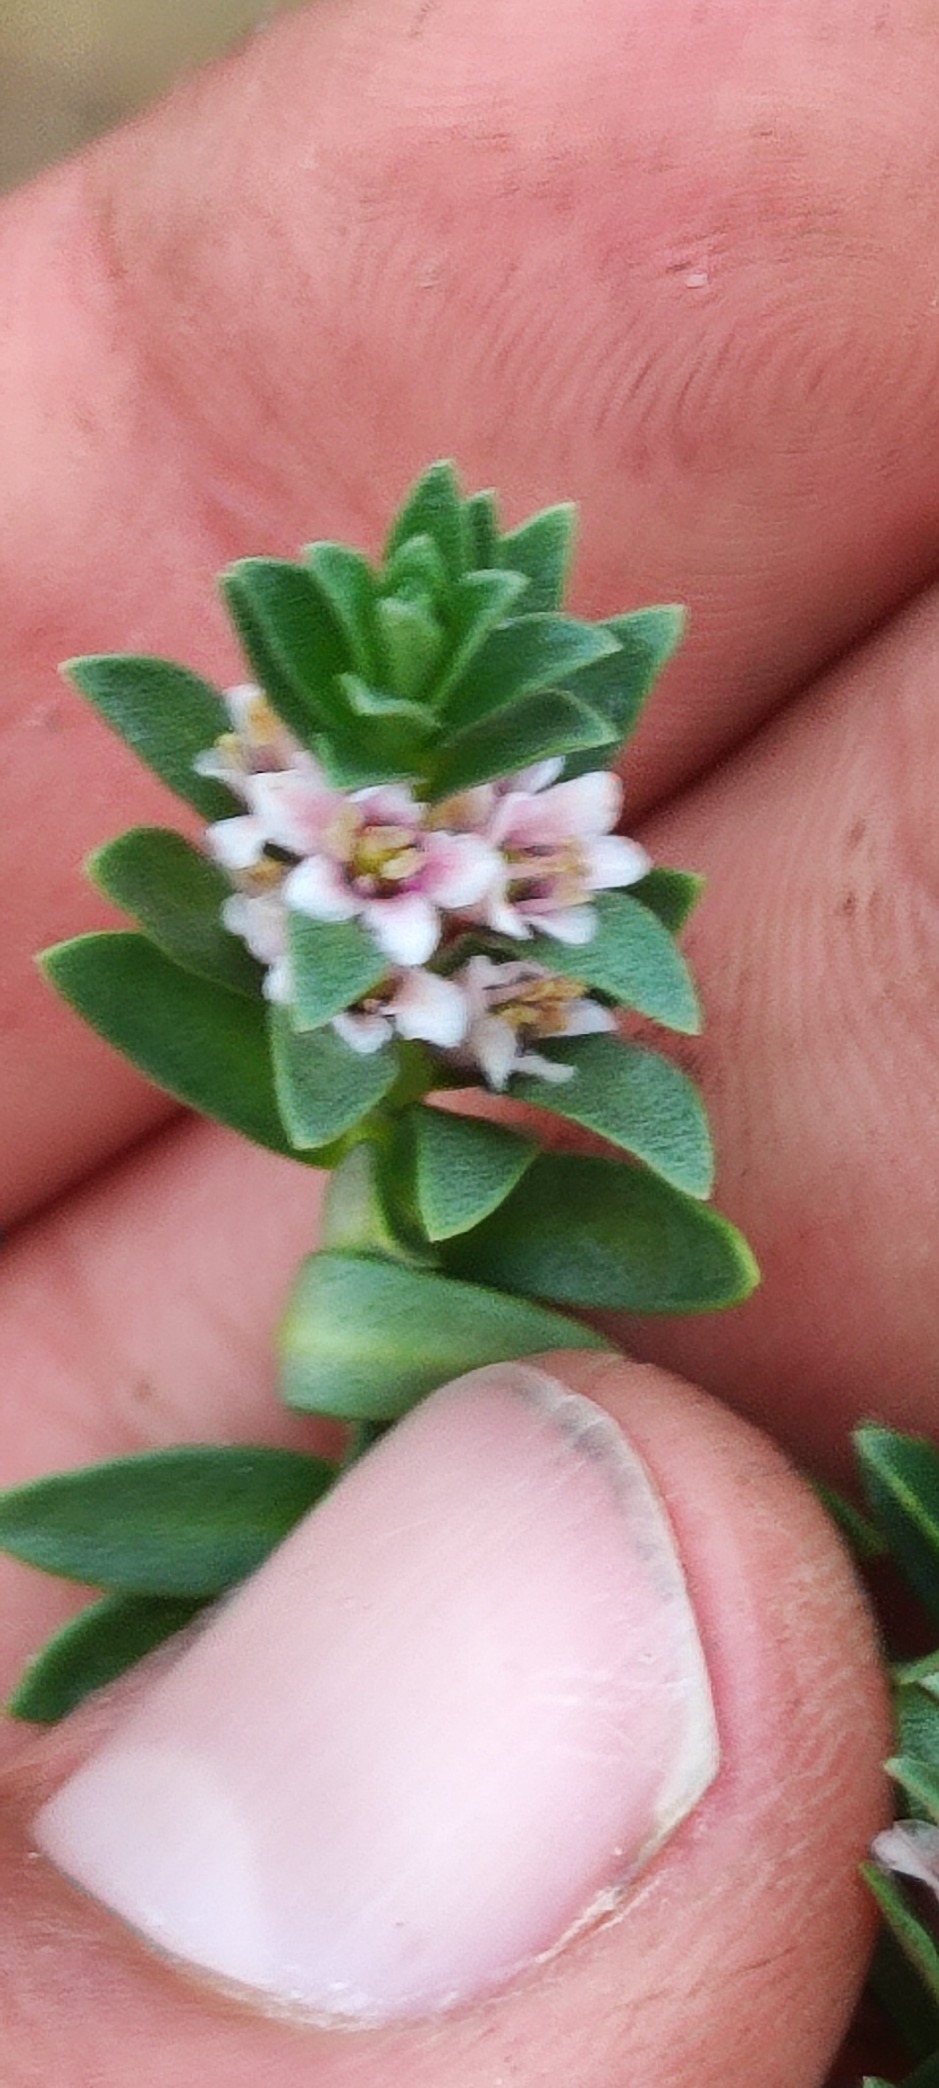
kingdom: Plantae
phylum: Tracheophyta
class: Magnoliopsida
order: Ericales
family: Primulaceae
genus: Lysimachia
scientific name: Lysimachia maritima
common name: Sandkryb
